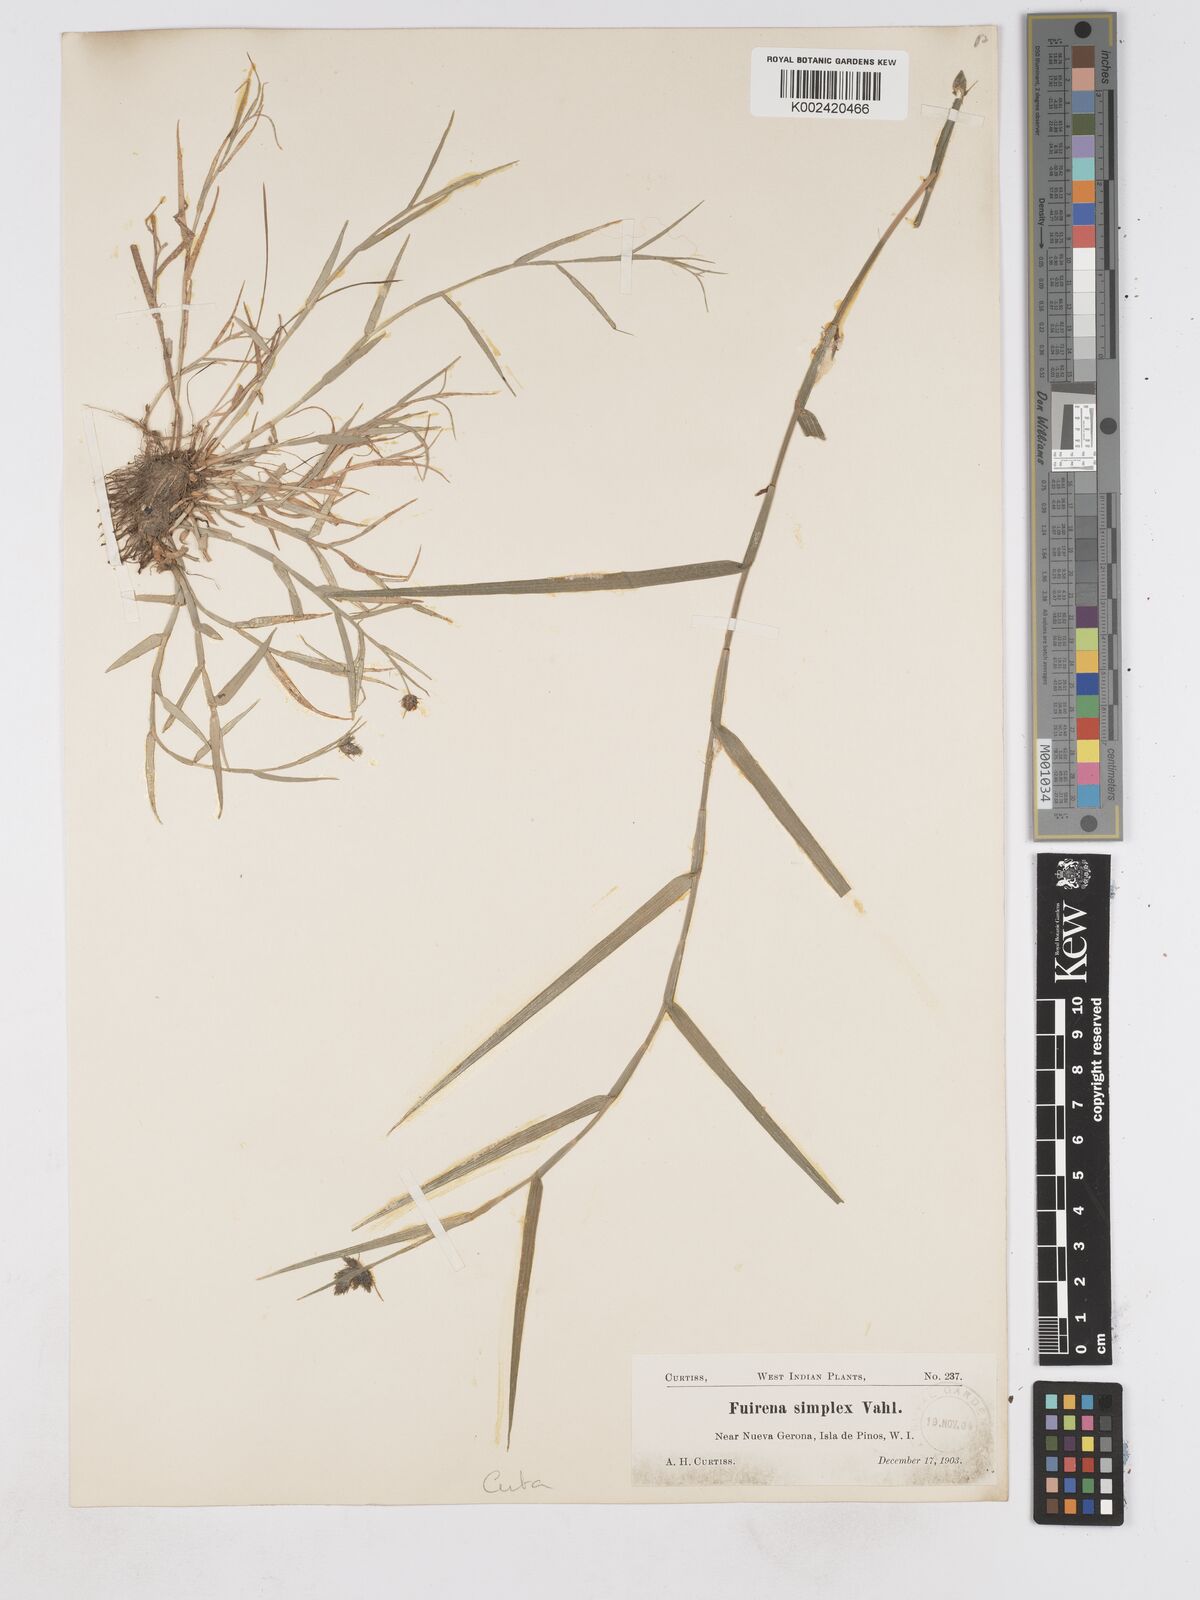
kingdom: Plantae
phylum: Tracheophyta
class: Liliopsida
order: Poales
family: Cyperaceae
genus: Fuirena
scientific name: Fuirena simplex
